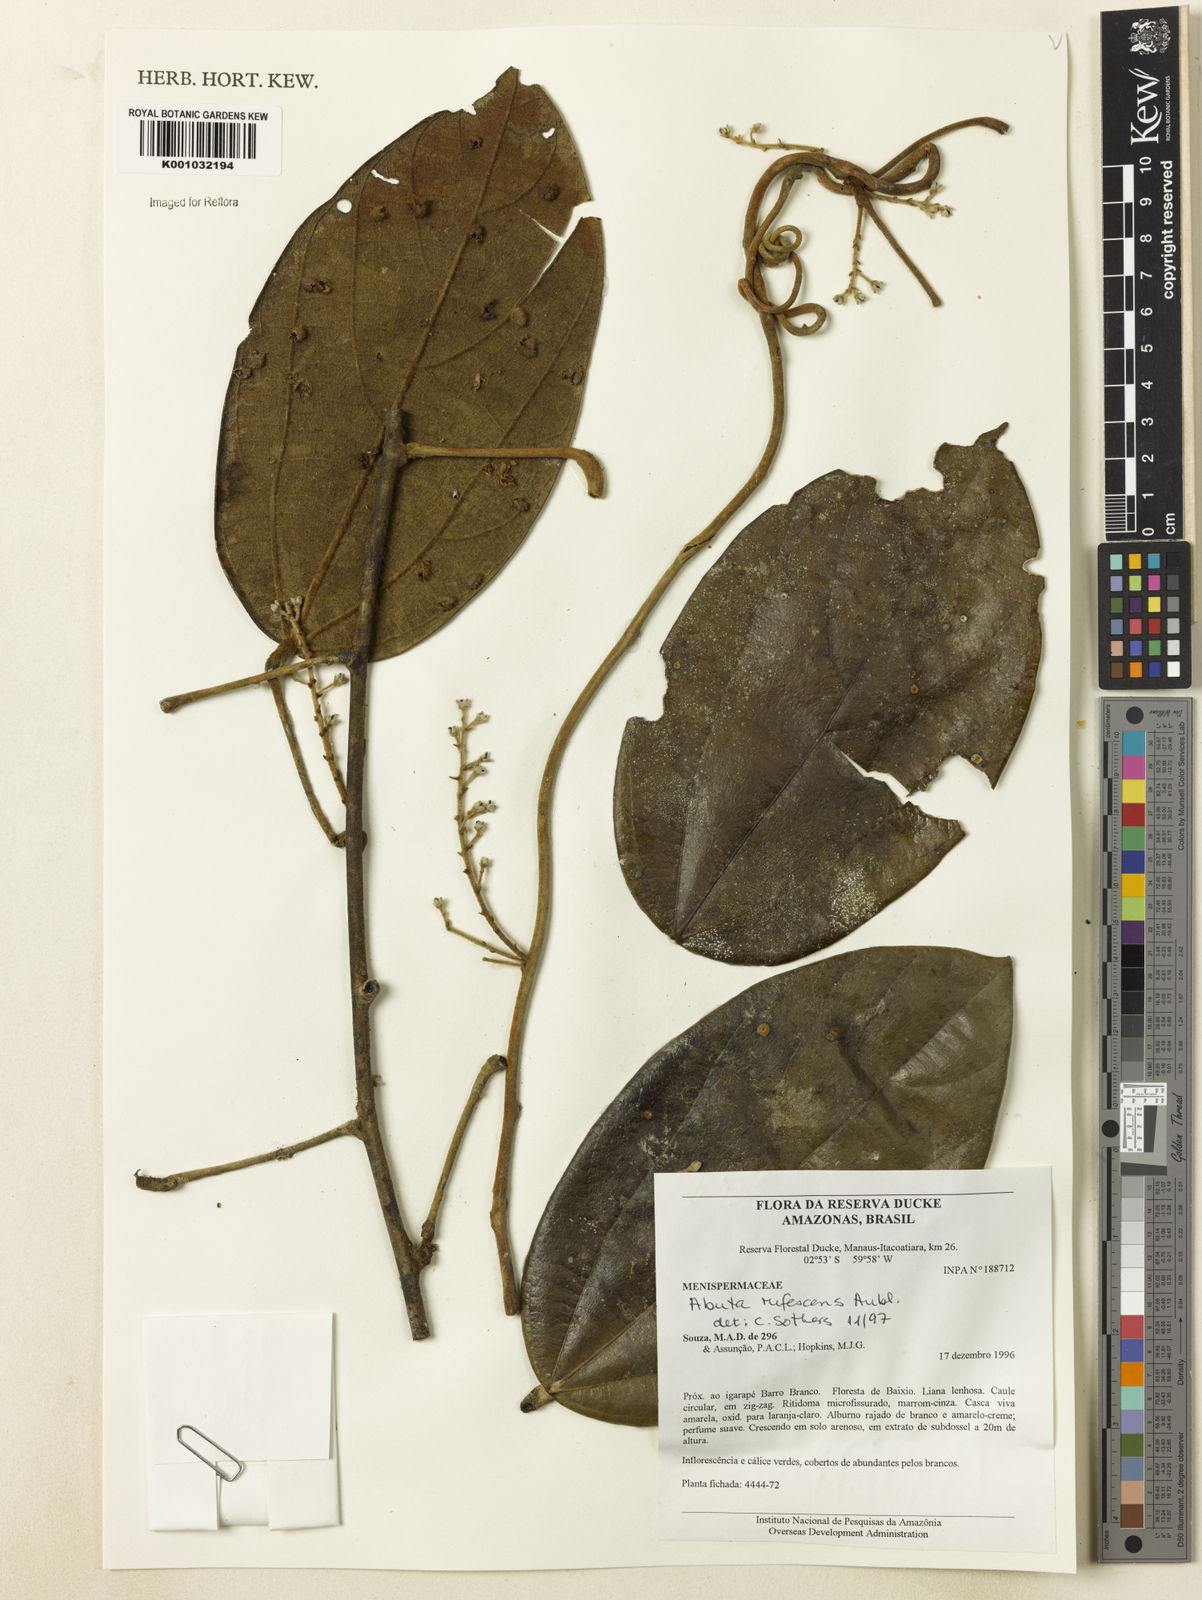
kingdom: Plantae
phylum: Tracheophyta
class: Magnoliopsida
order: Ranunculales
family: Menispermaceae
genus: Abuta
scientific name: Abuta
